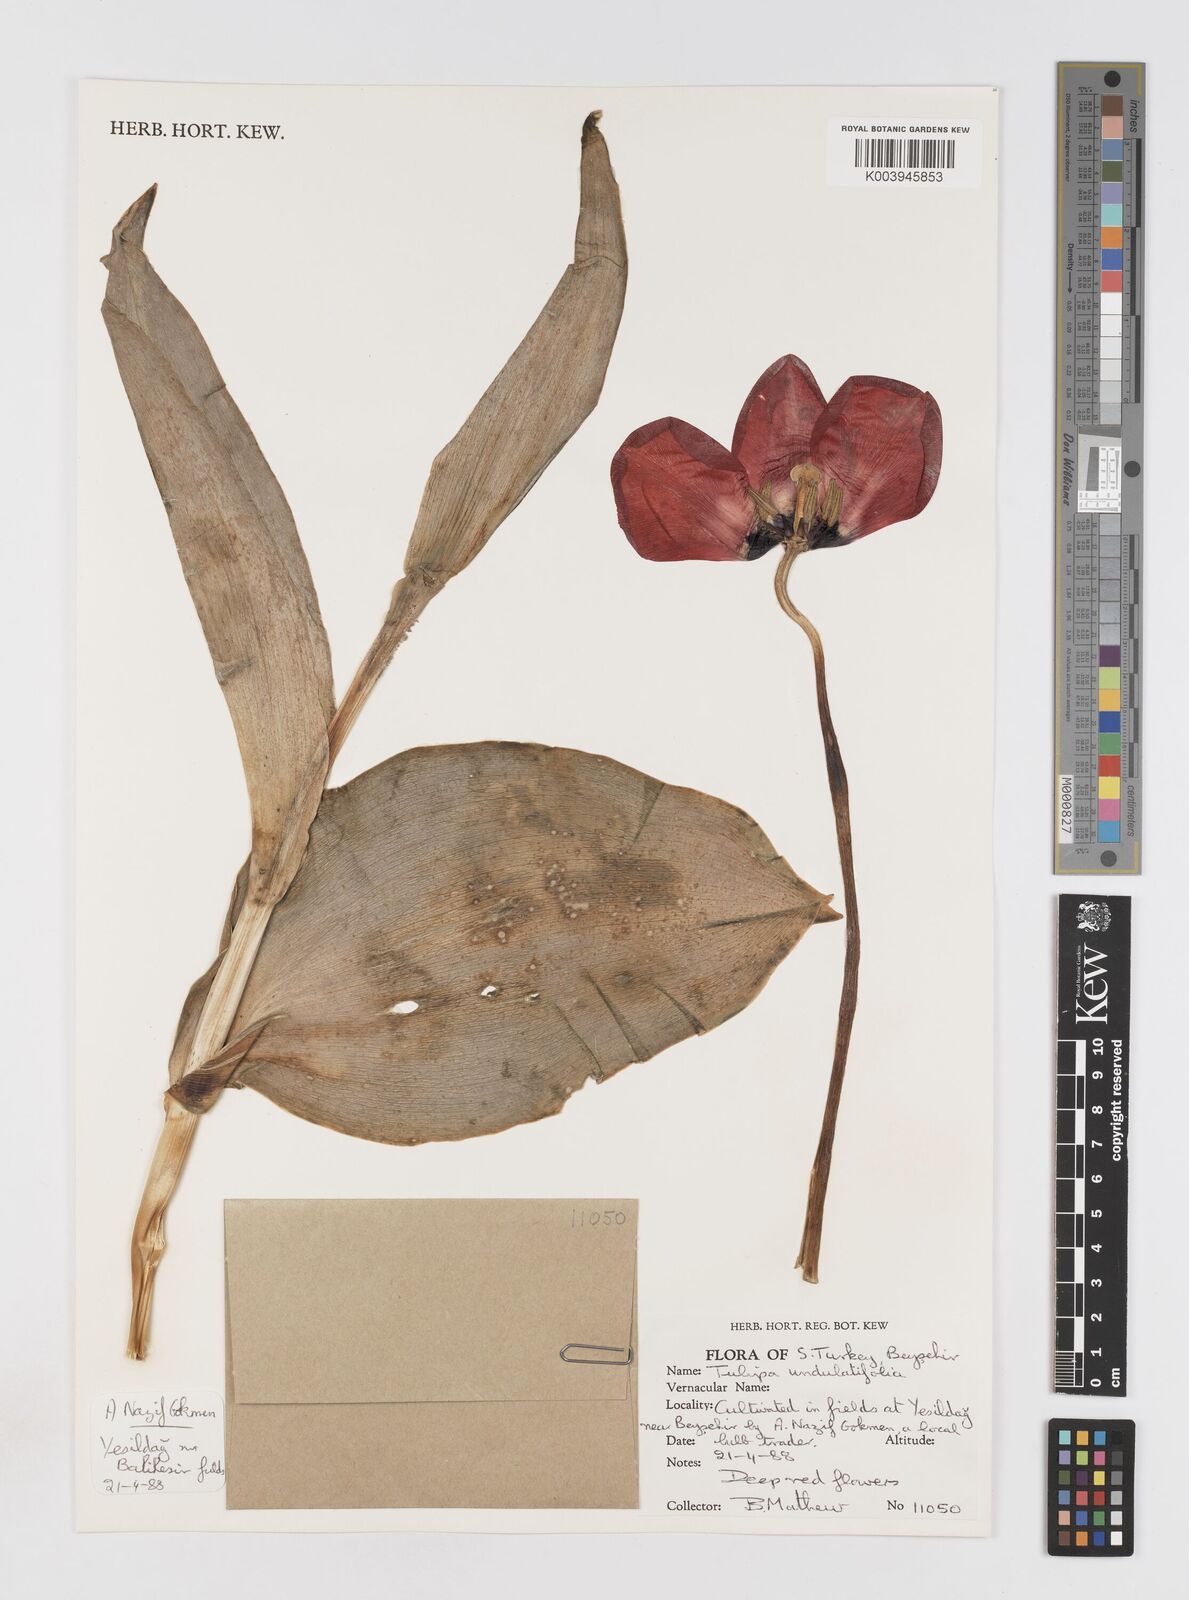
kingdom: Plantae
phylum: Tracheophyta
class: Liliopsida
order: Liliales
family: Liliaceae
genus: Tulipa
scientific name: Tulipa undulatifolia
